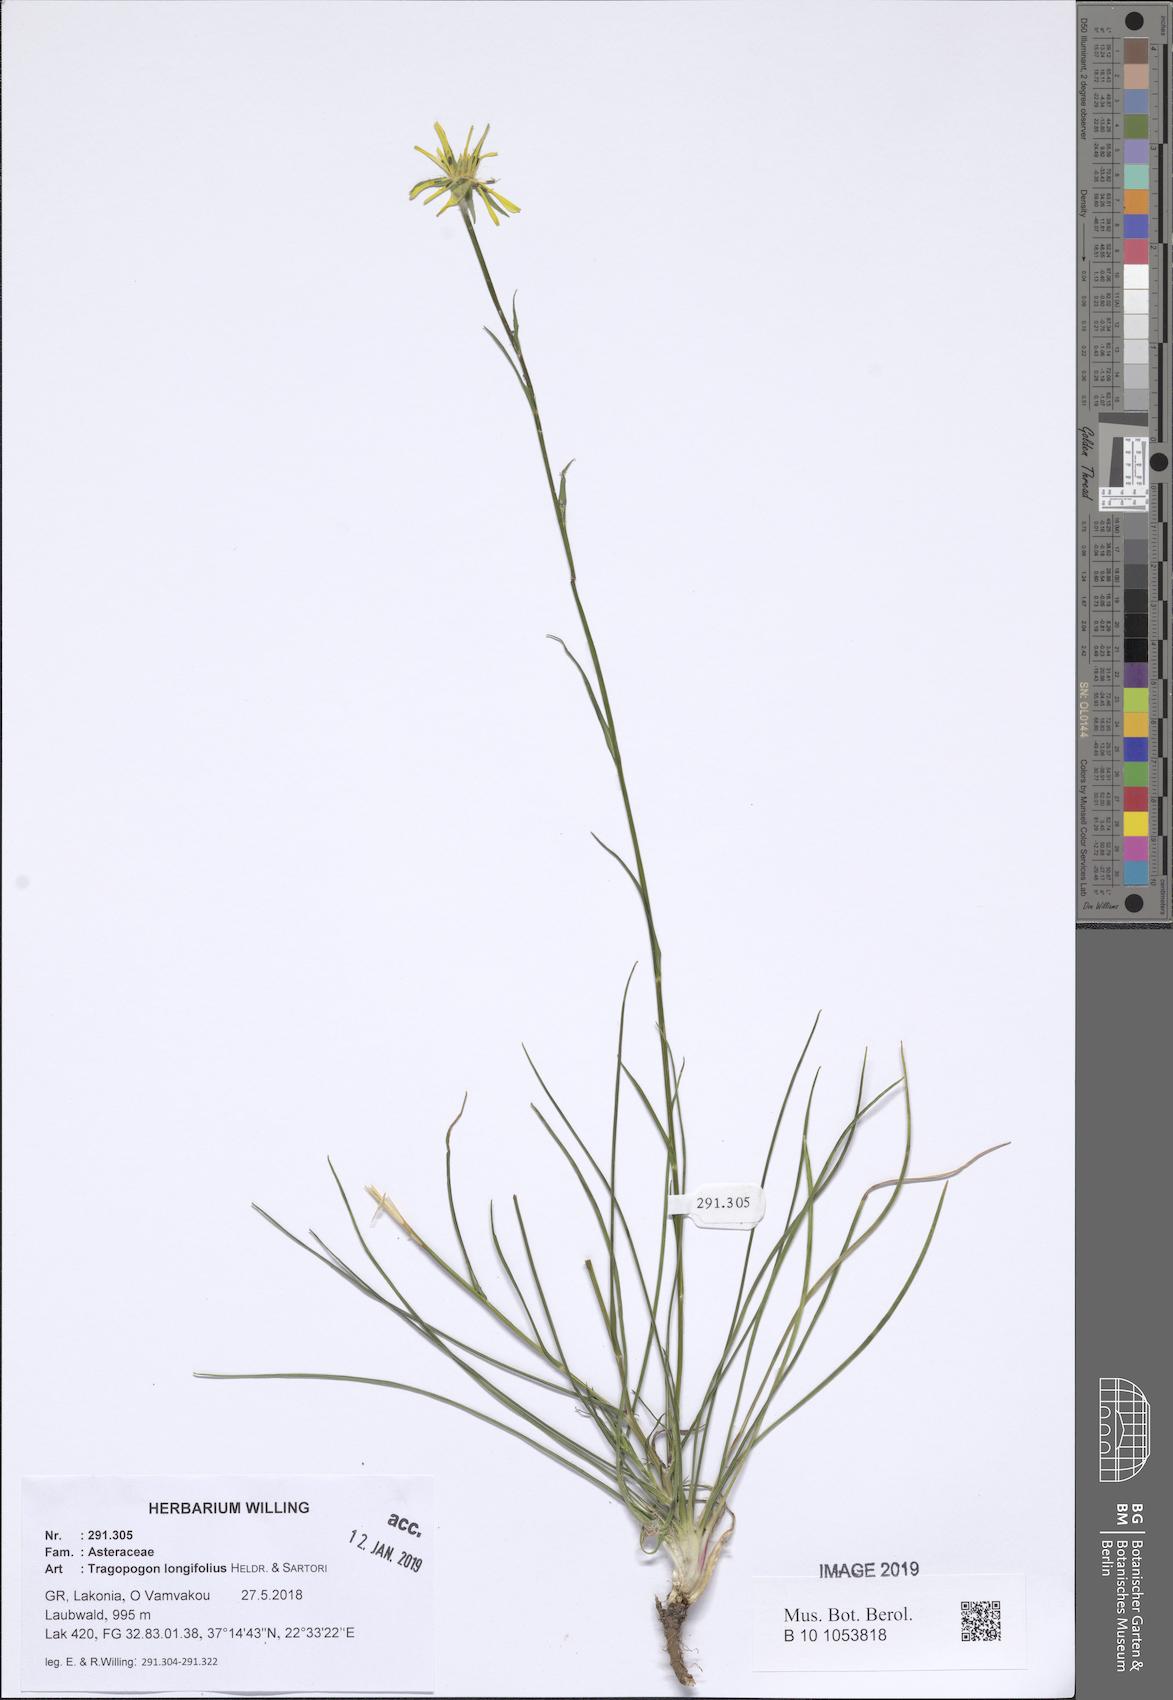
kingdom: Plantae
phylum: Tracheophyta
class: Magnoliopsida
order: Asterales
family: Asteraceae
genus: Tragopogon
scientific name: Tragopogon longifolius
